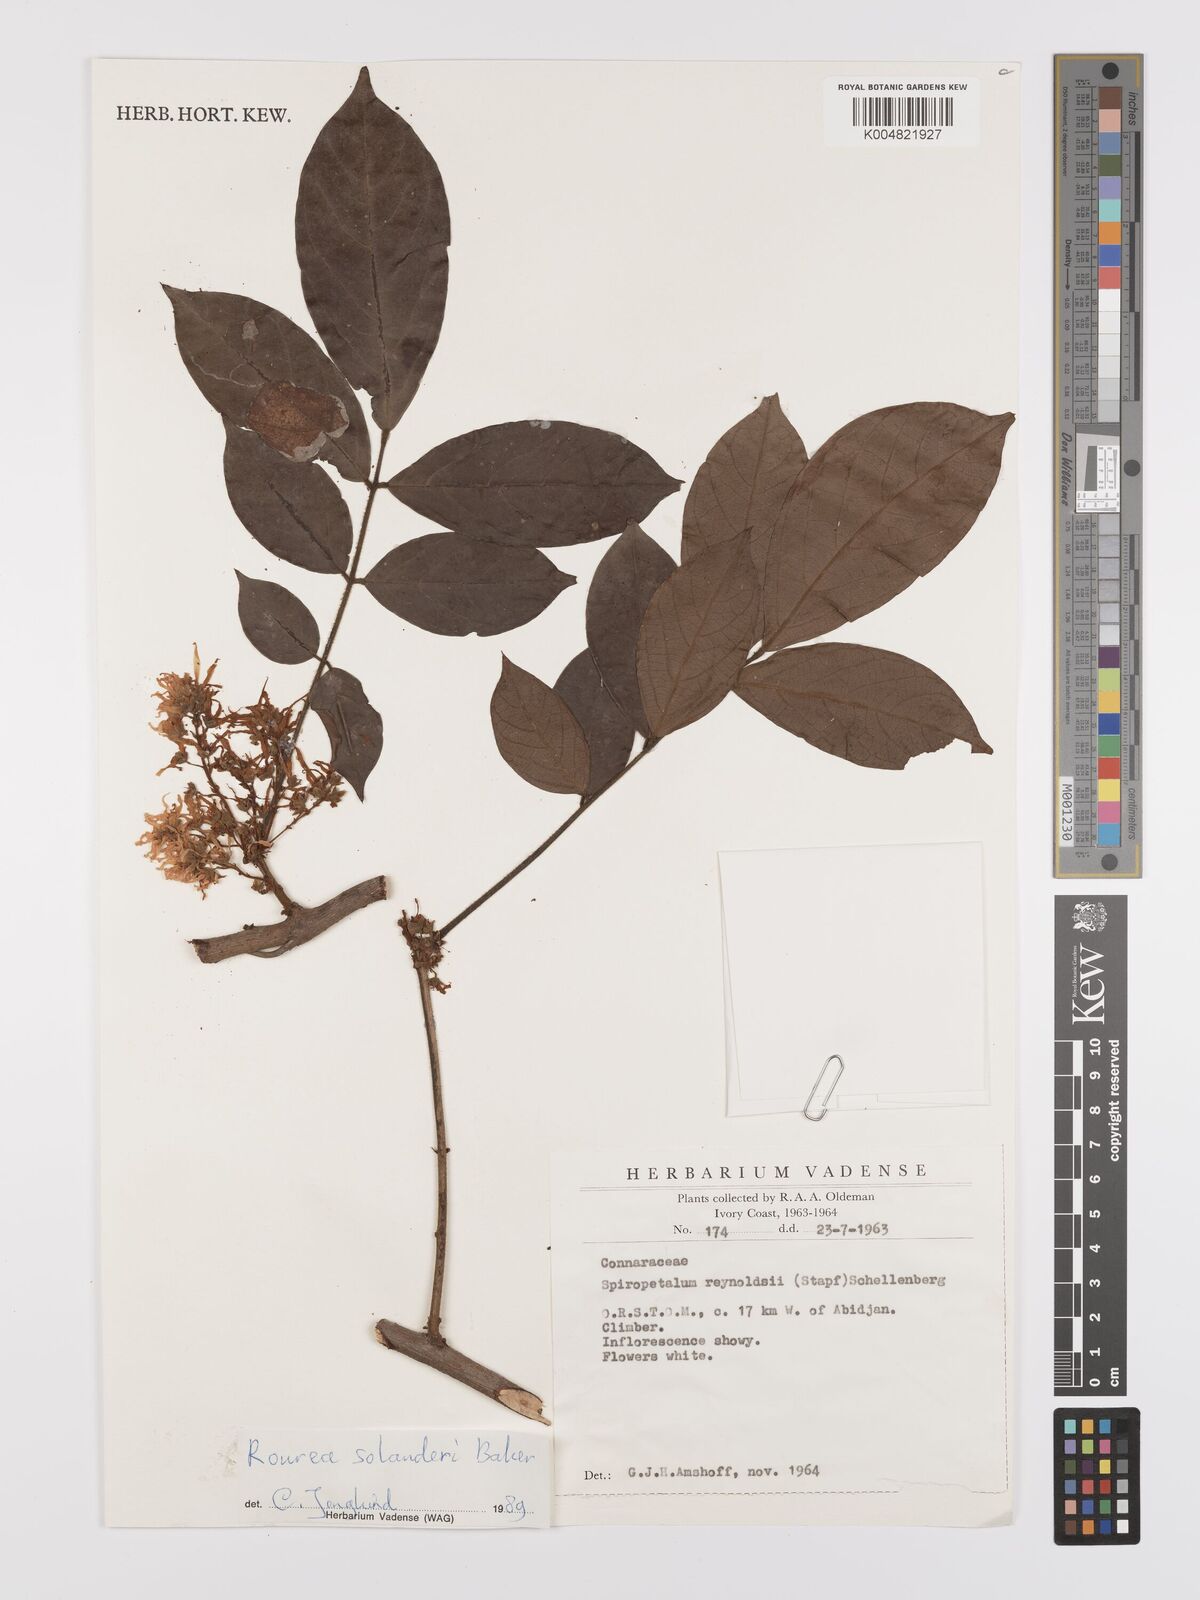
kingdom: Plantae
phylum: Tracheophyta
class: Magnoliopsida
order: Oxalidales
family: Connaraceae
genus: Rourea
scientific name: Rourea solanderi
